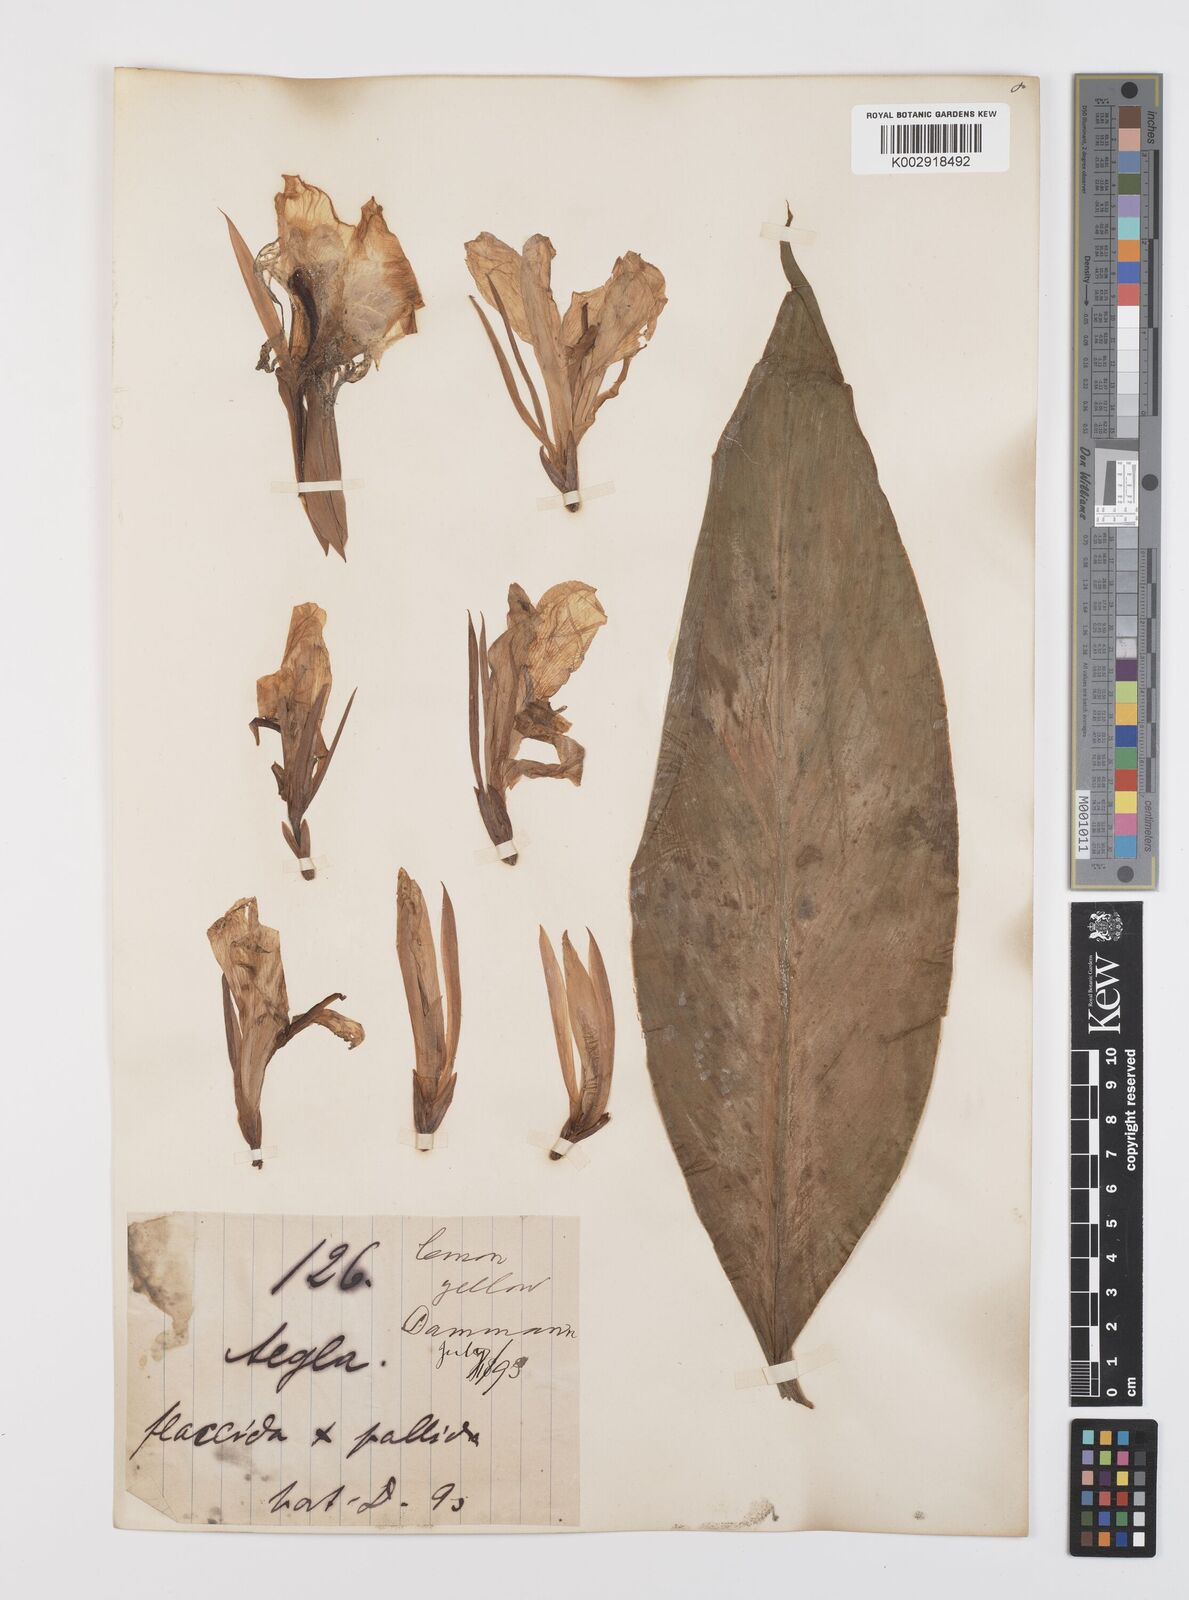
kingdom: Plantae
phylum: Tracheophyta
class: Liliopsida
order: Zingiberales
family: Cannaceae
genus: Canna
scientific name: Canna
